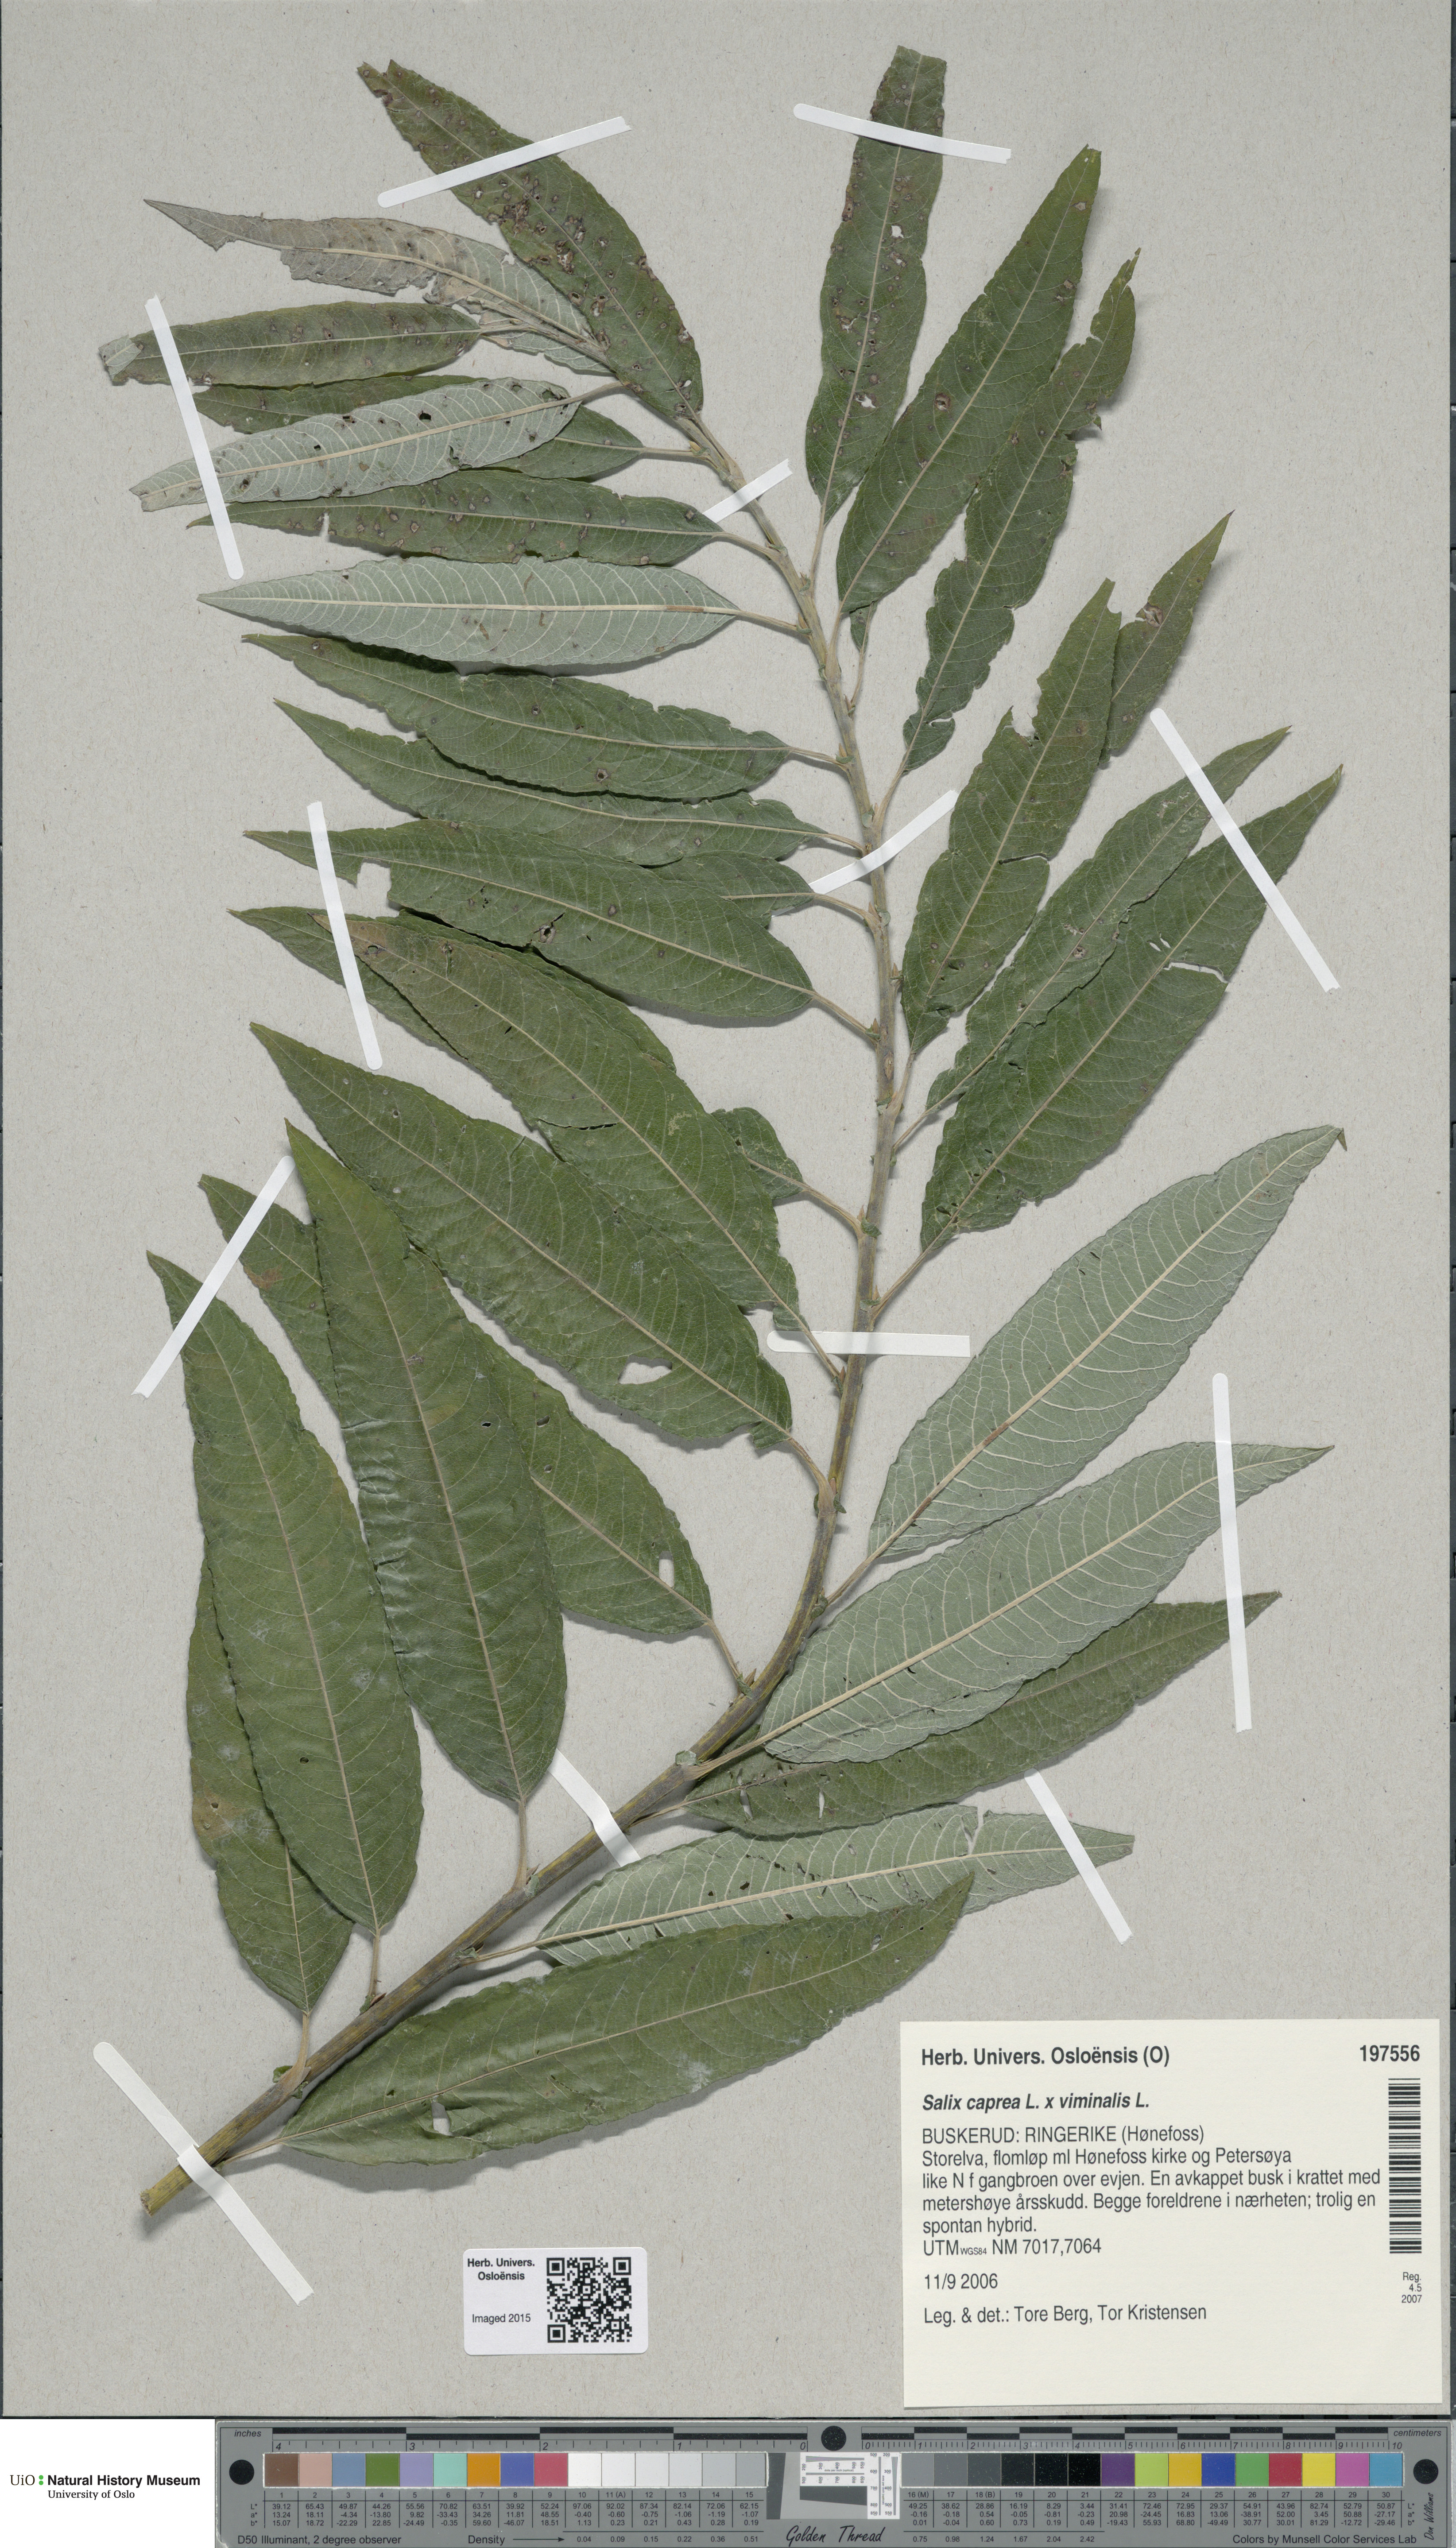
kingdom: Plantae
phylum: Tracheophyta
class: Magnoliopsida
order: Malpighiales
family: Salicaceae
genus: Salix
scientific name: Salix
